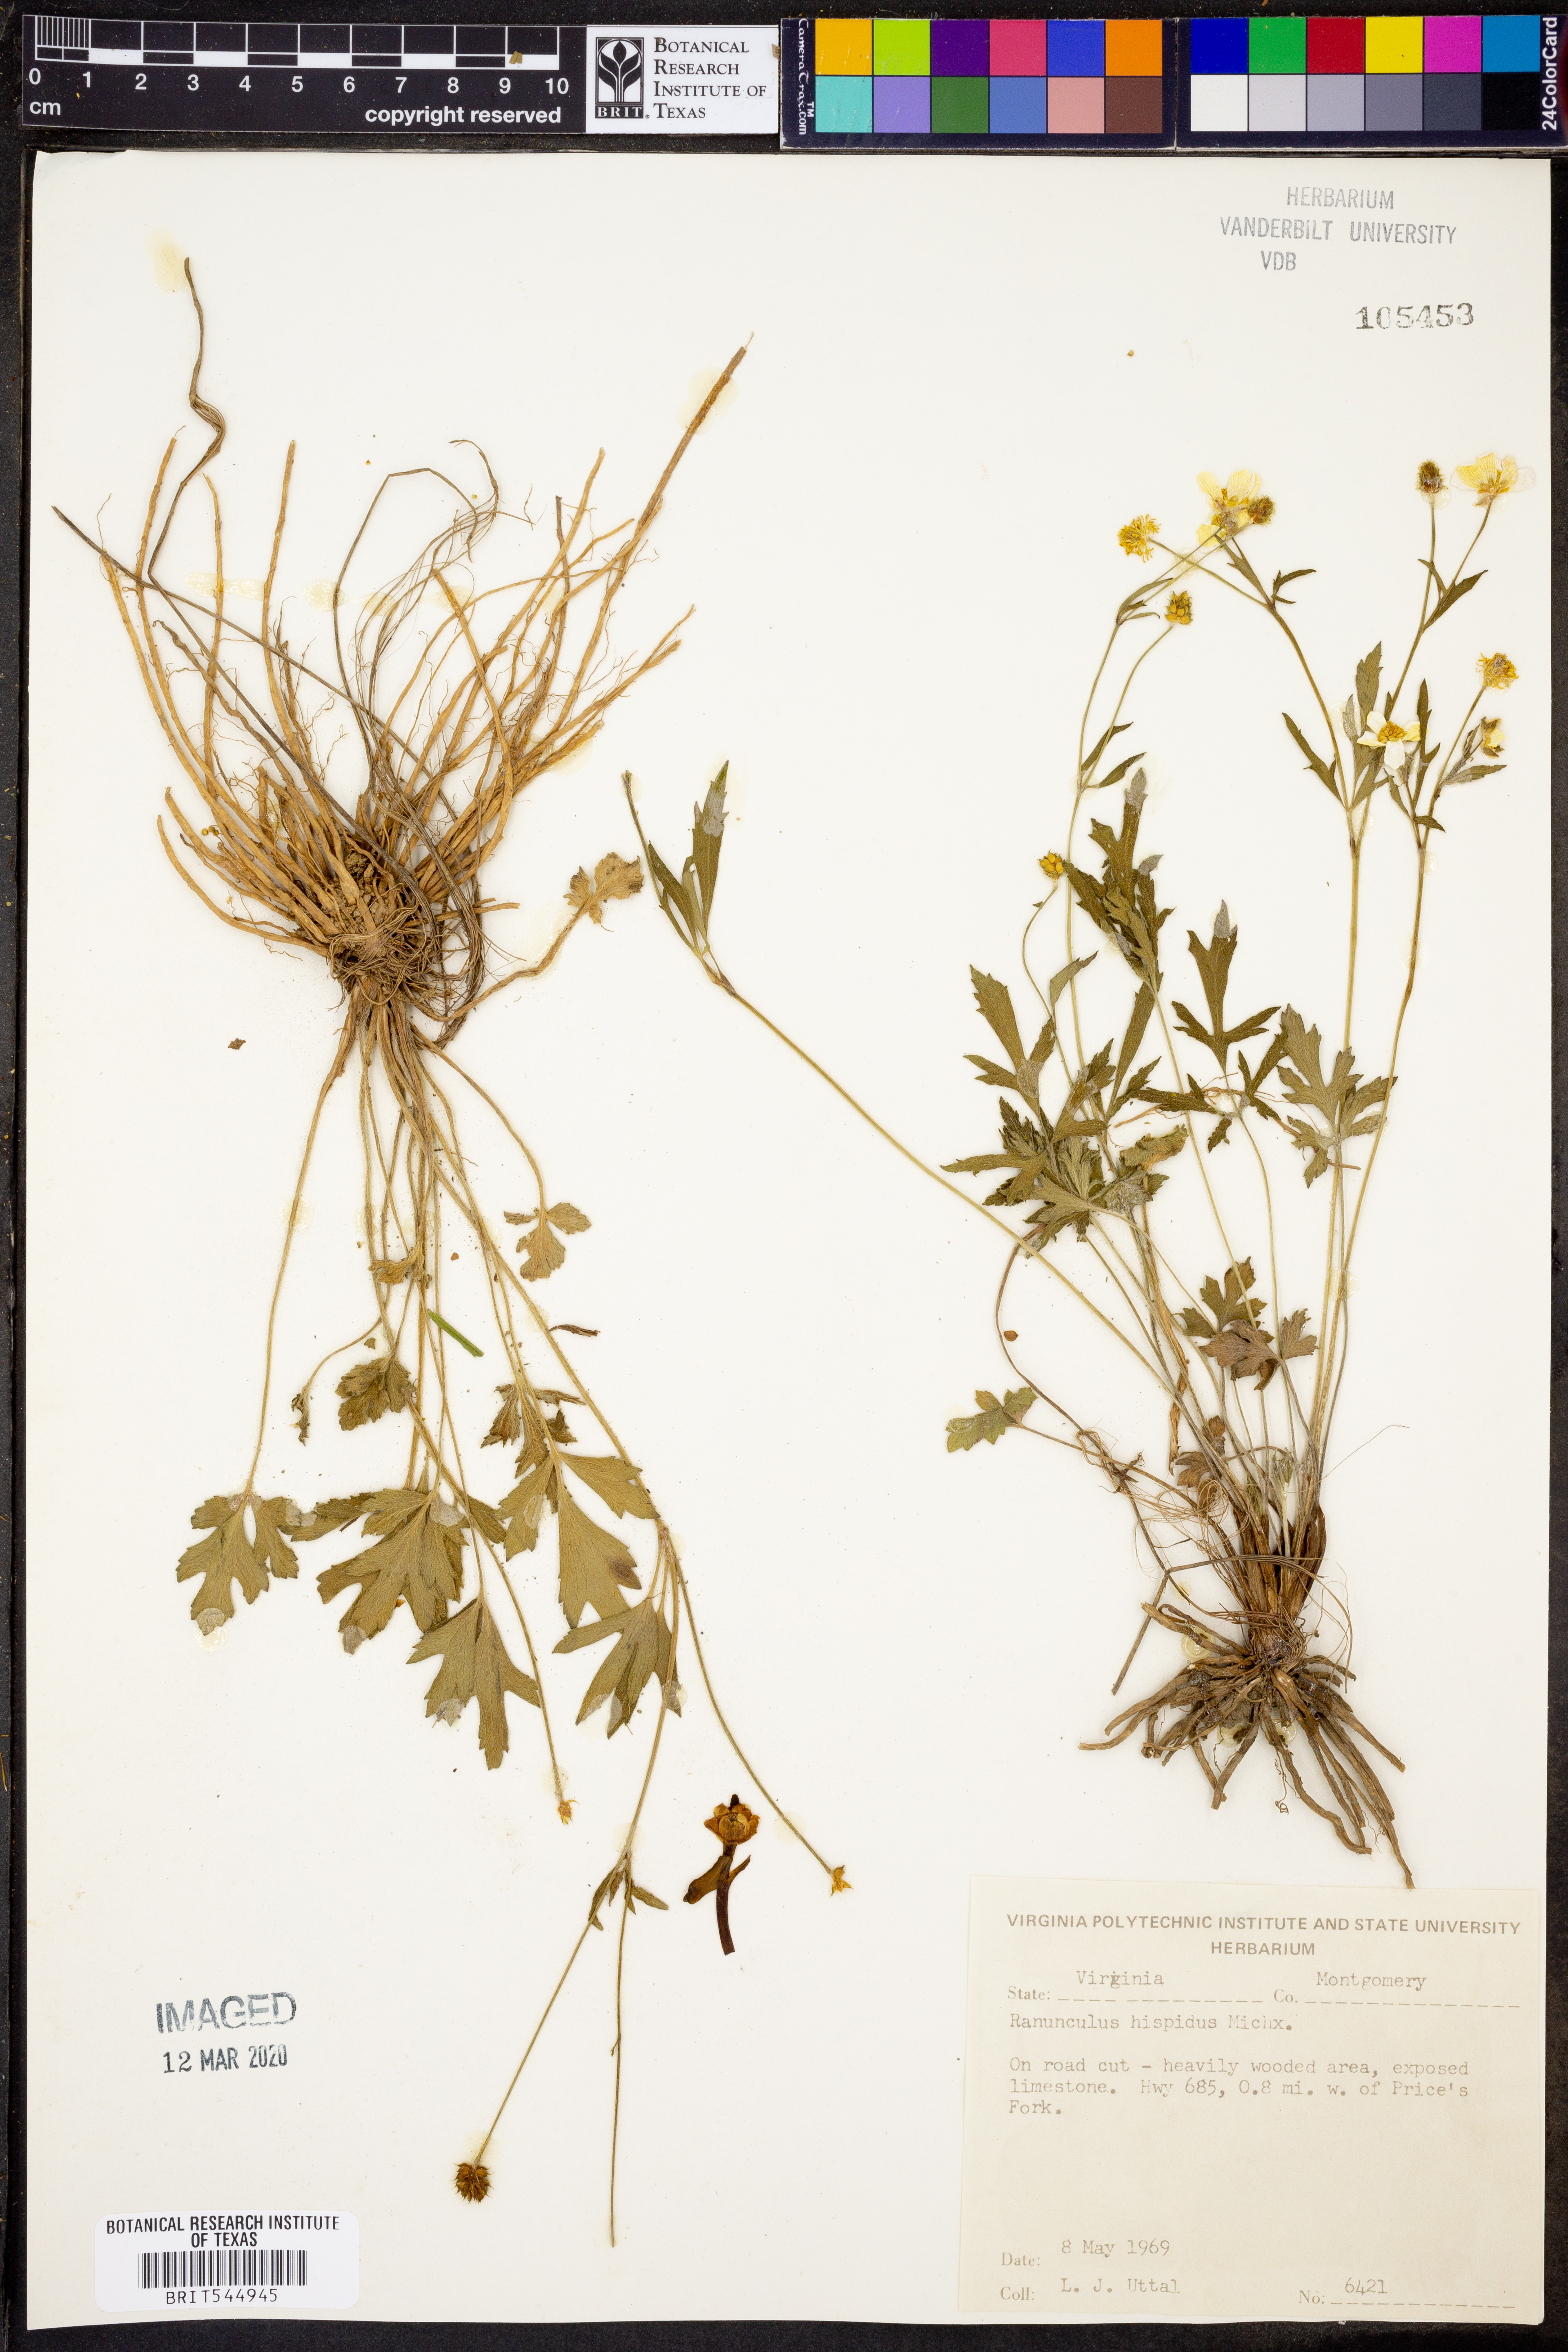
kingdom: Plantae
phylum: Tracheophyta
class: Magnoliopsida
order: Ranunculales
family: Ranunculaceae
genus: Ranunculus
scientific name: Ranunculus hispidus
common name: Bristly buttercup
